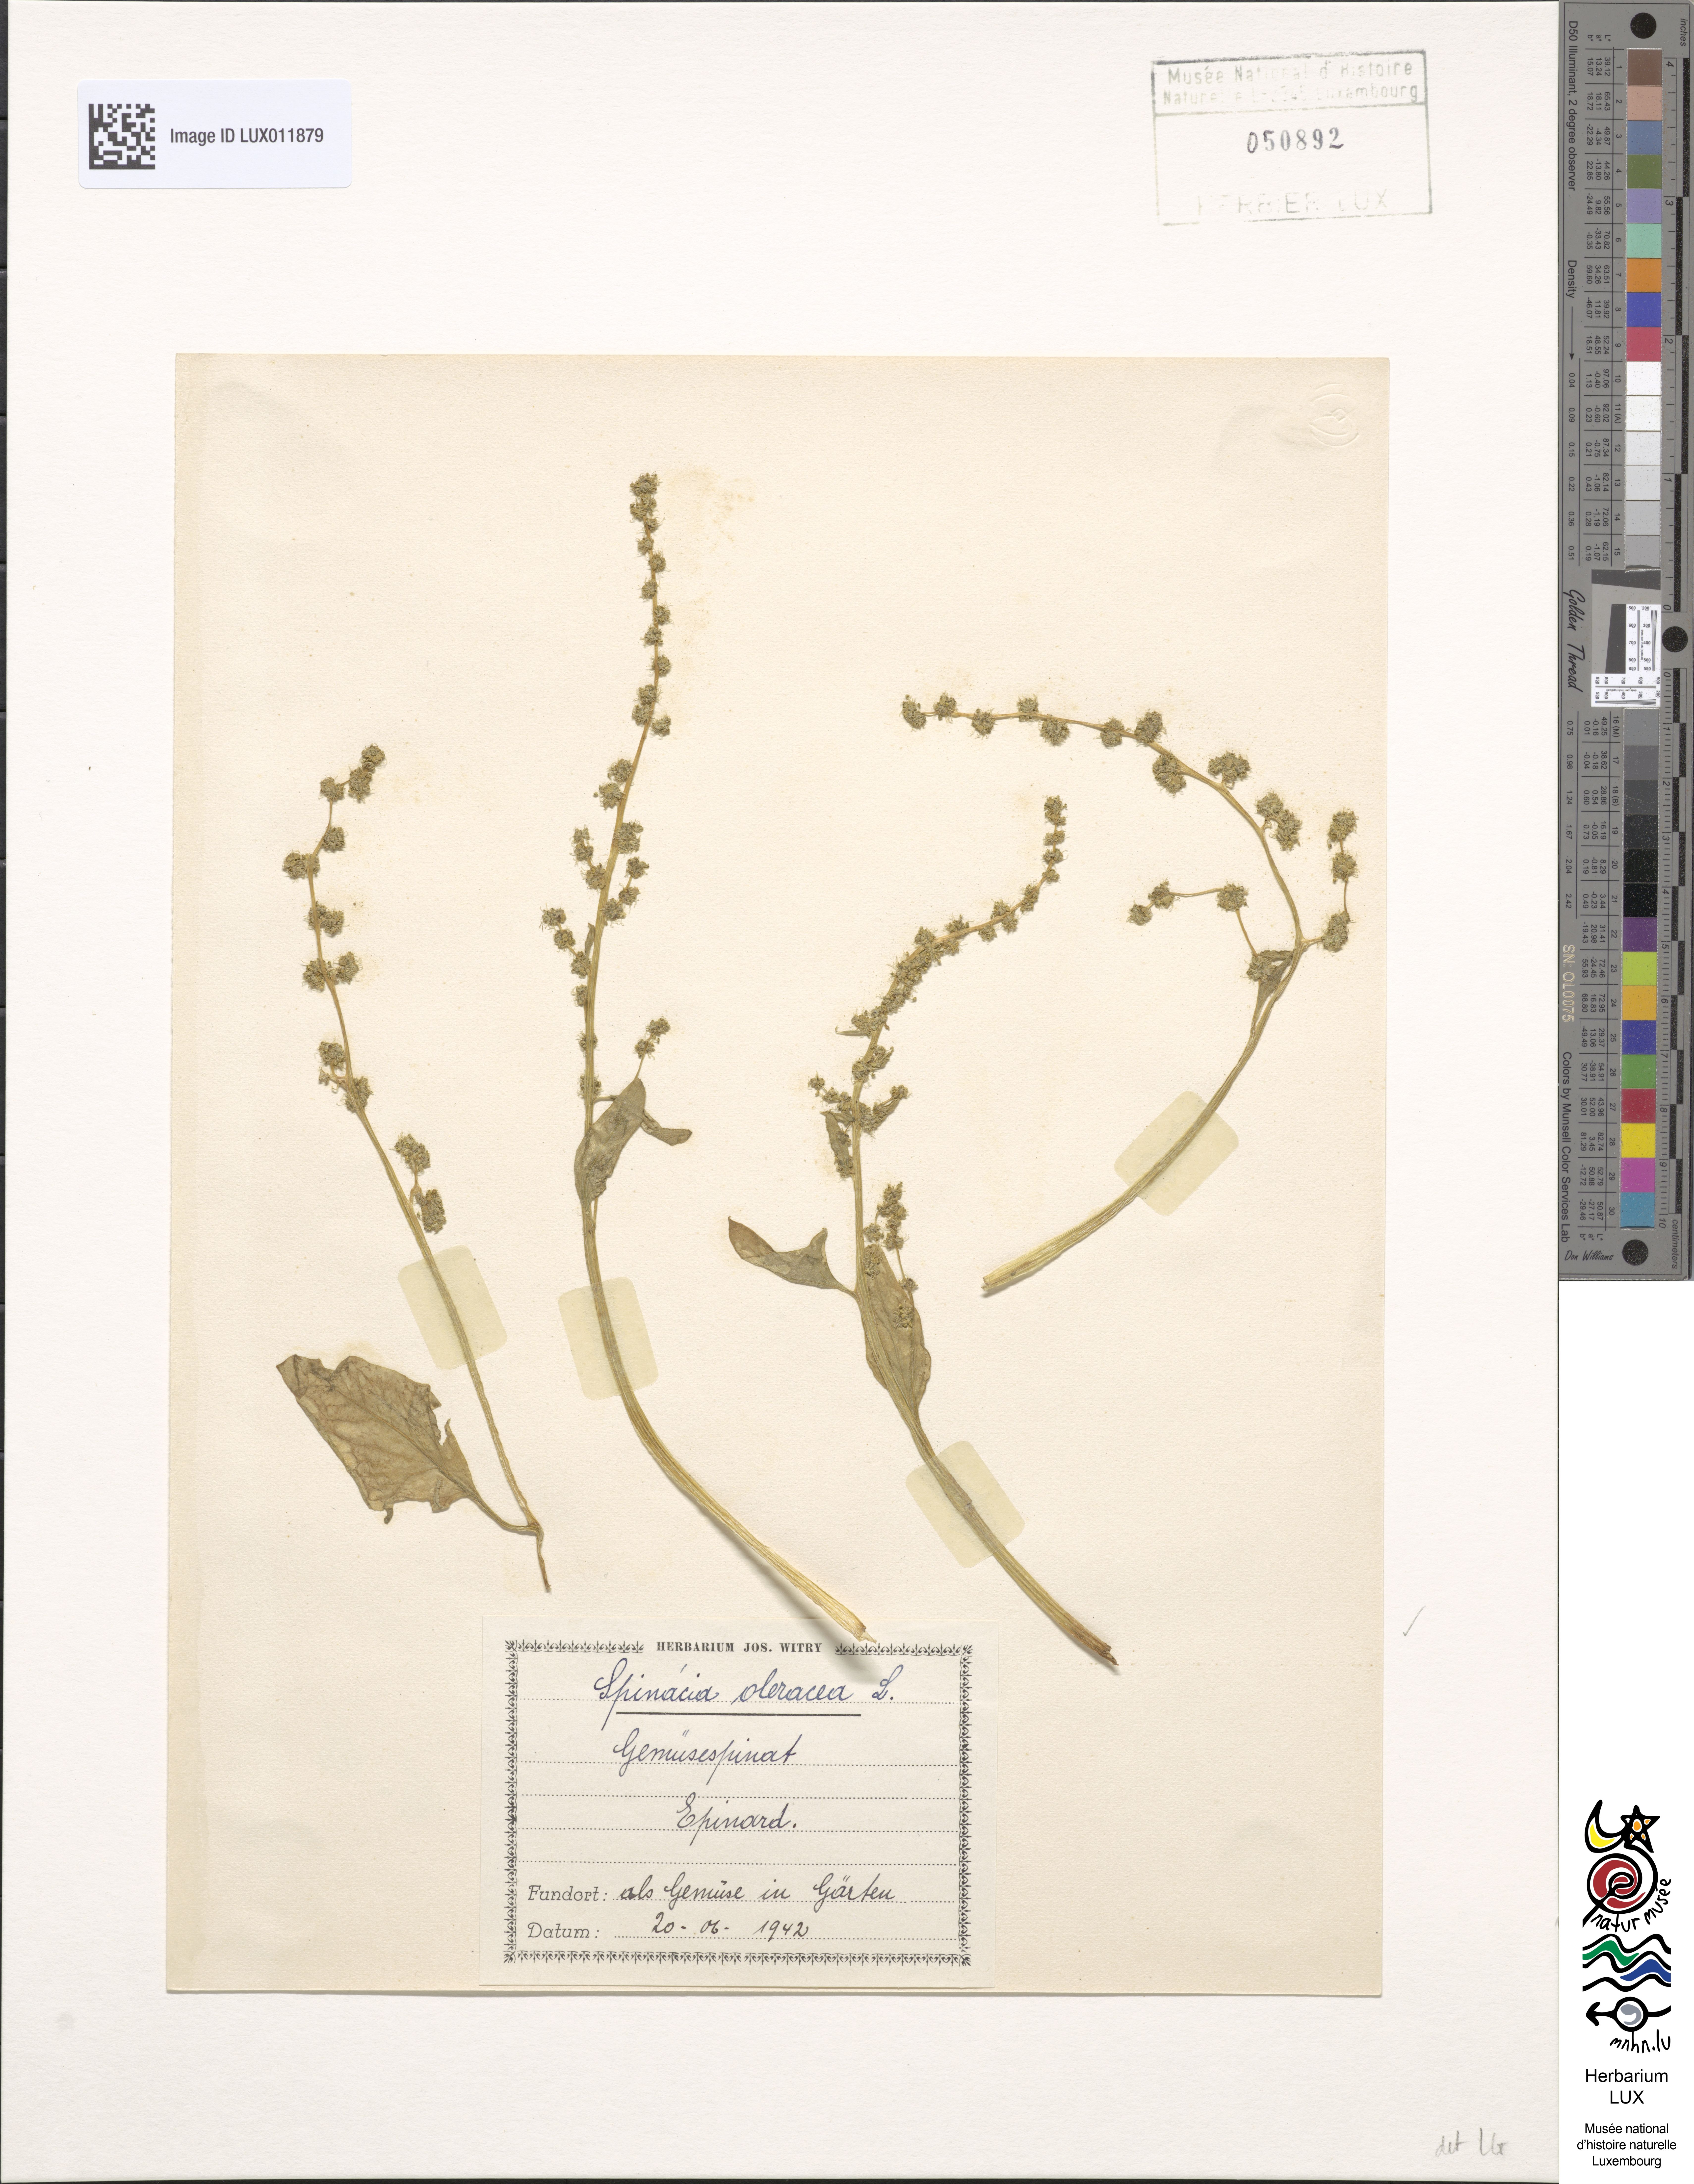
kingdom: Plantae
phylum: Tracheophyta
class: Magnoliopsida
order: Caryophyllales
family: Amaranthaceae
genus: Spinacia
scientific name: Spinacia oleracea
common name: Spinach
